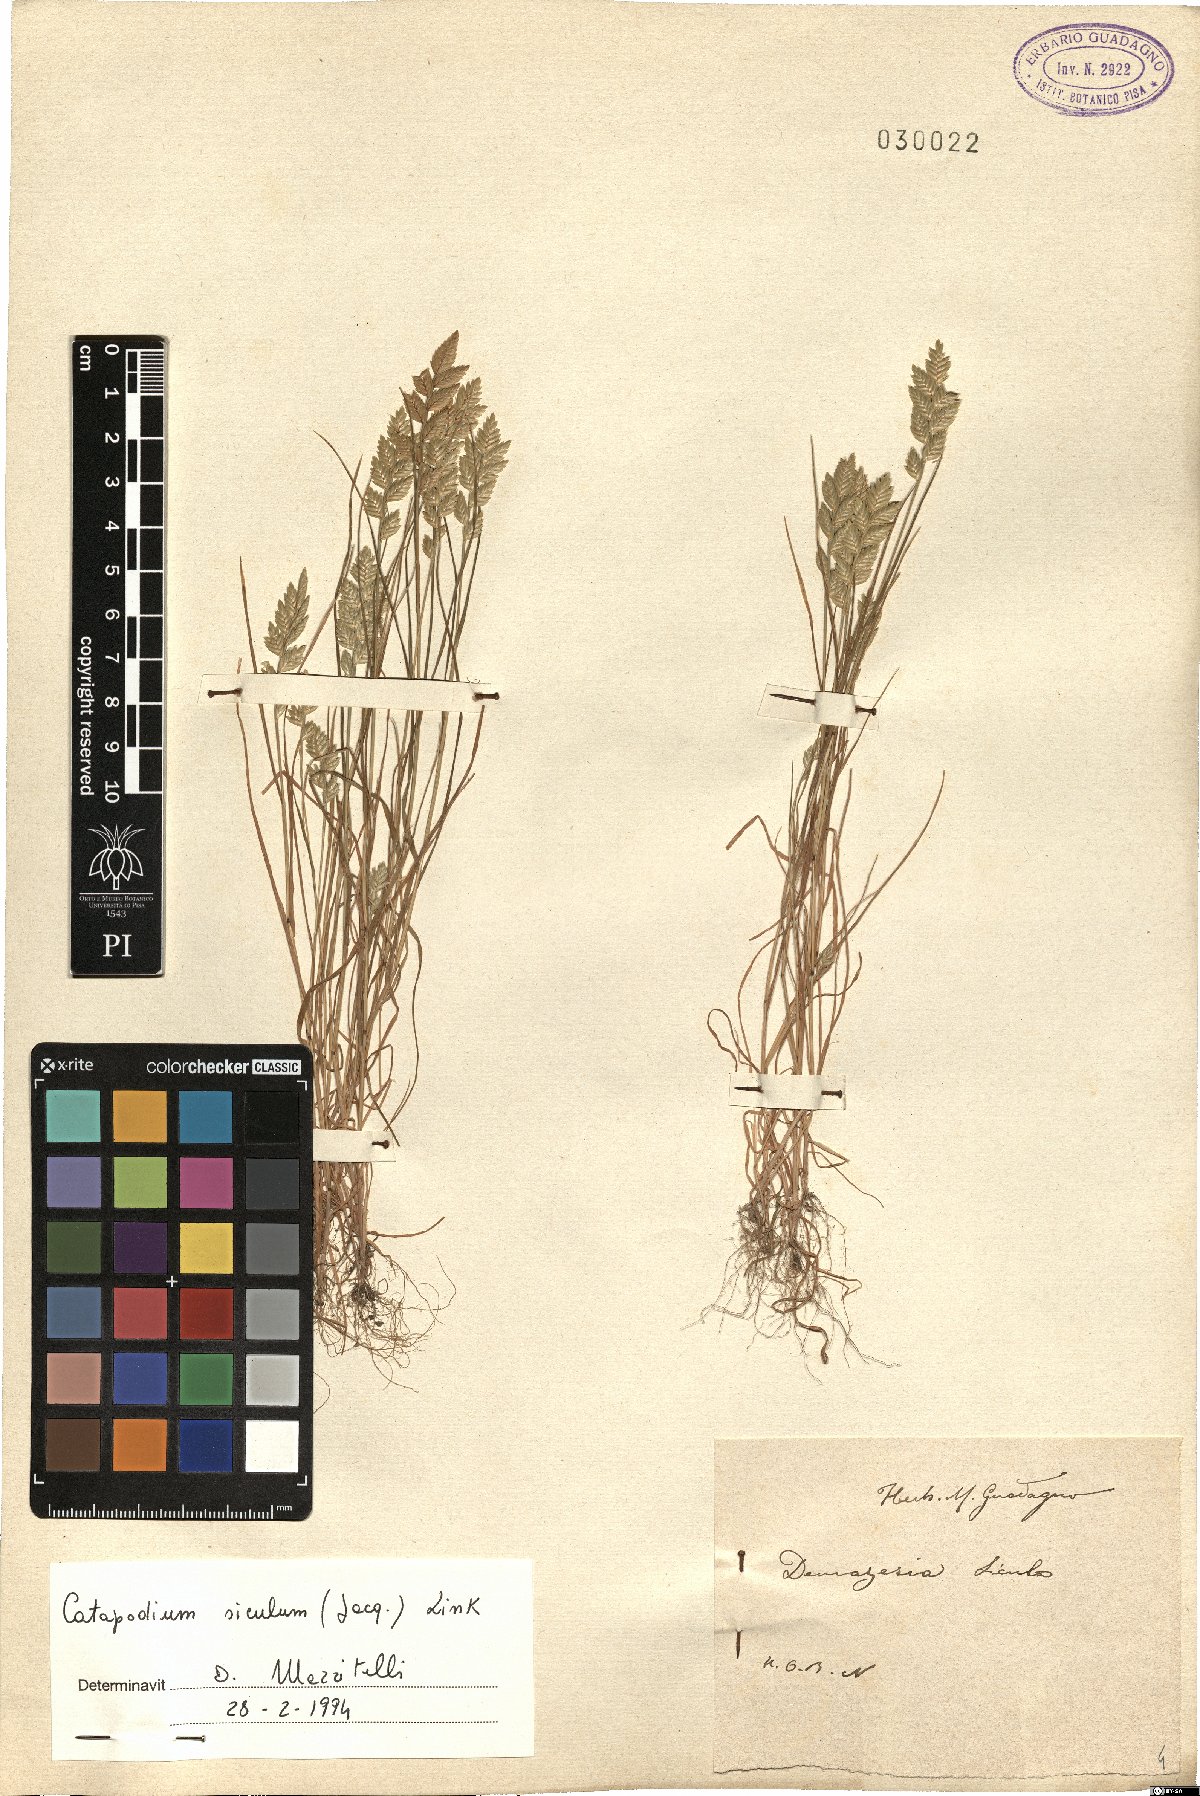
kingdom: Plantae
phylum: Tracheophyta
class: Liliopsida
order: Poales
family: Poaceae
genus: Desmazeria
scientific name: Desmazeria sicula
